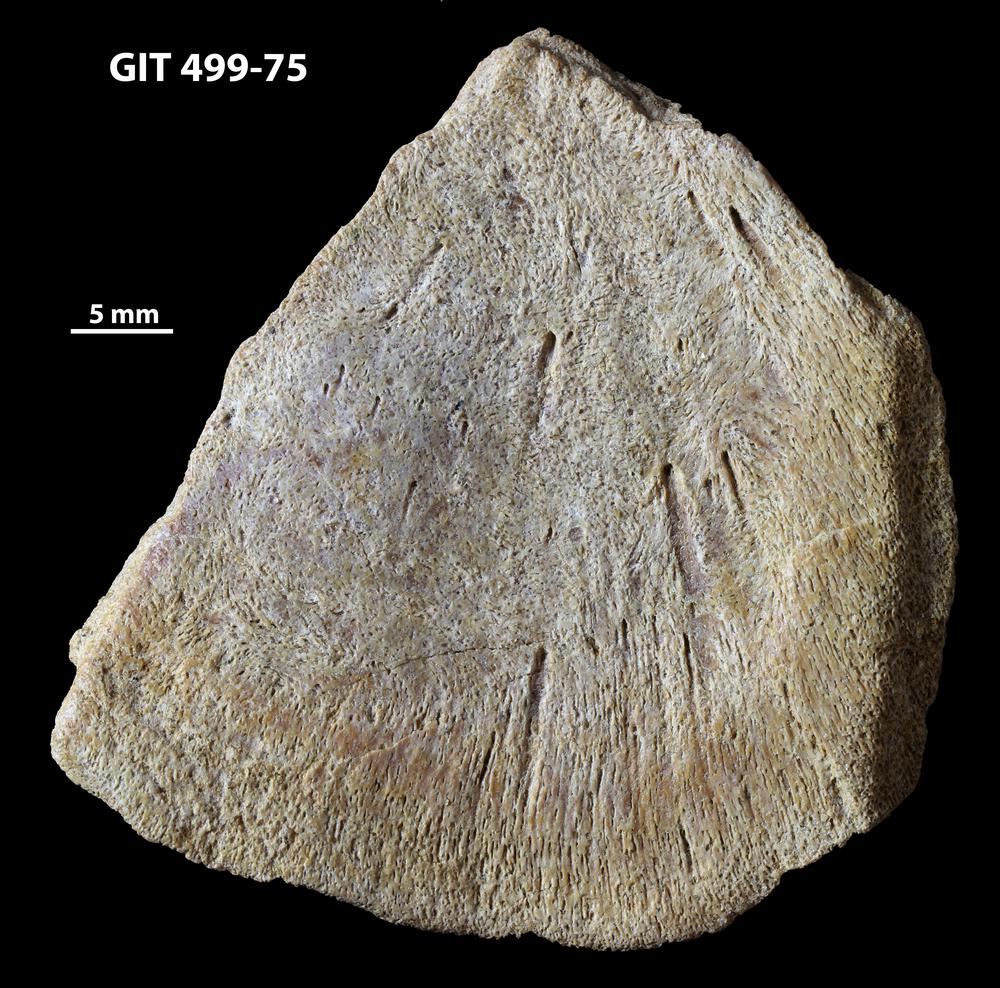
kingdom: Animalia
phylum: Chordata
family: Holoptychiidae
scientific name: Holoptychiidae
